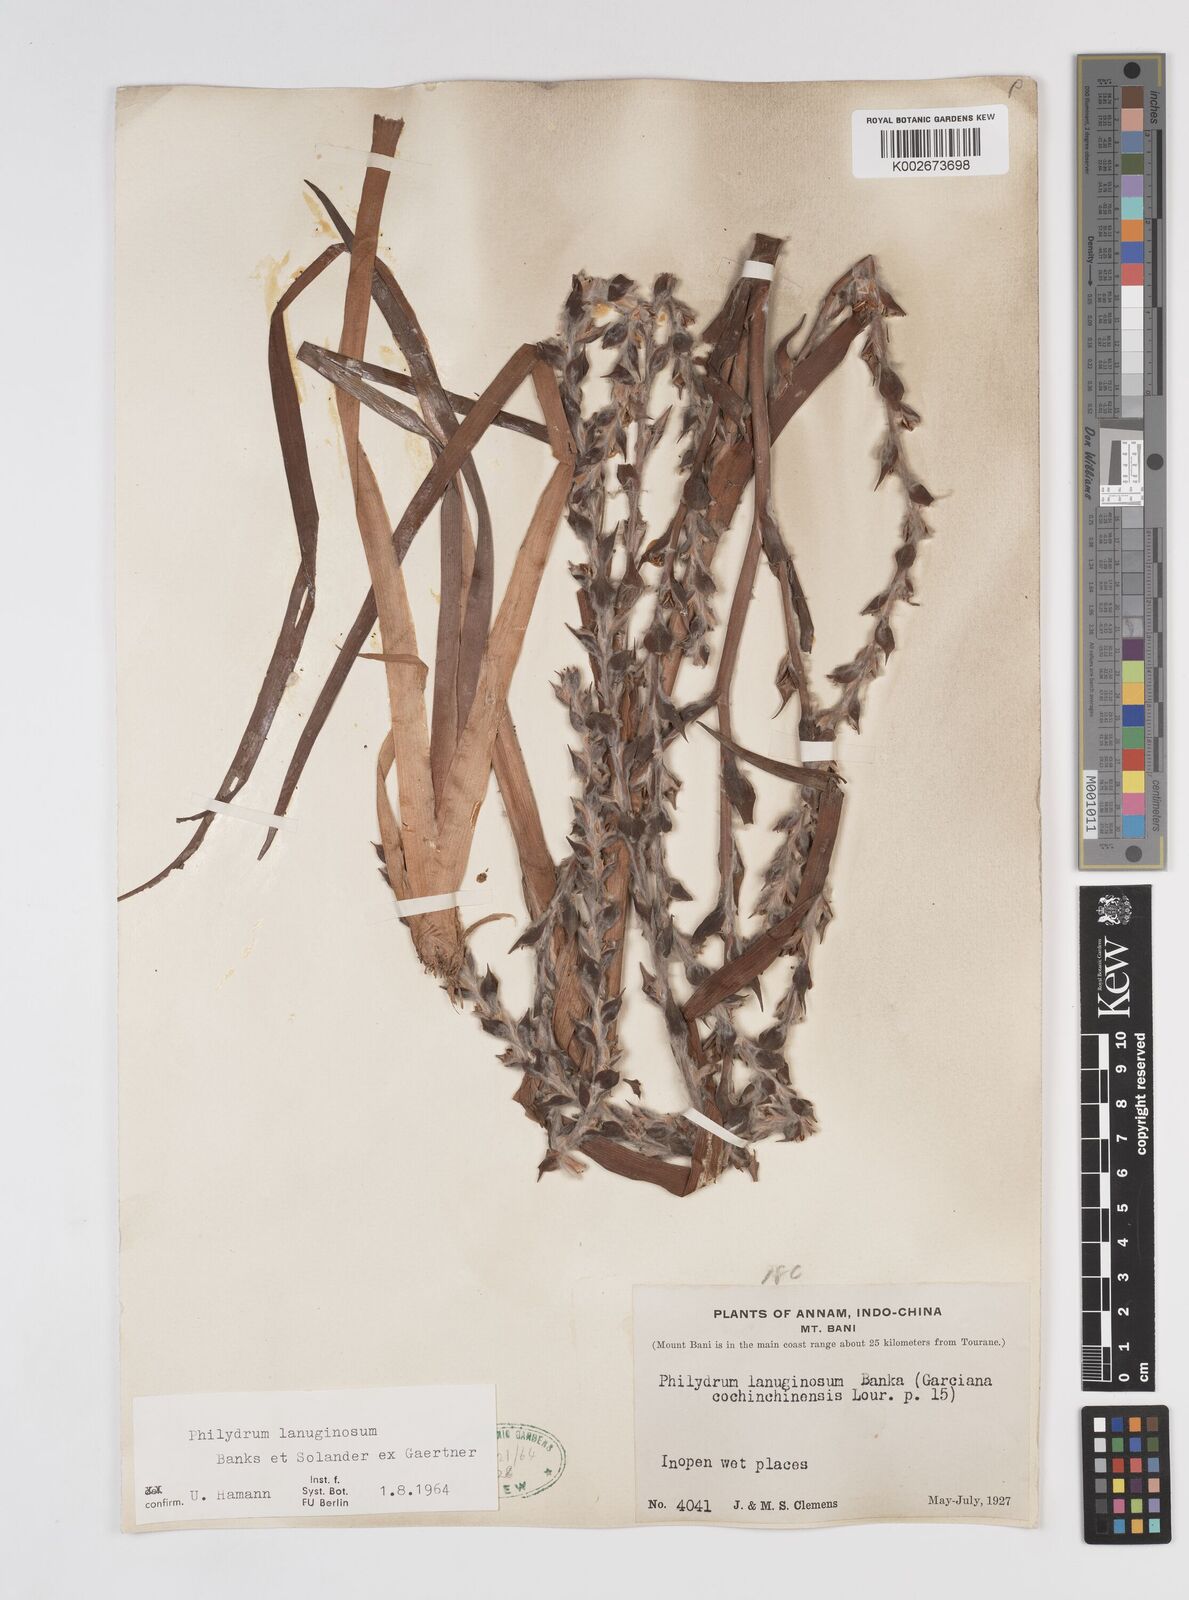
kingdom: Plantae
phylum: Tracheophyta
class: Liliopsida
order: Commelinales
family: Philydraceae
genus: Philydrum
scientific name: Philydrum lanuginosum
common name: Woolly frog's mouth
